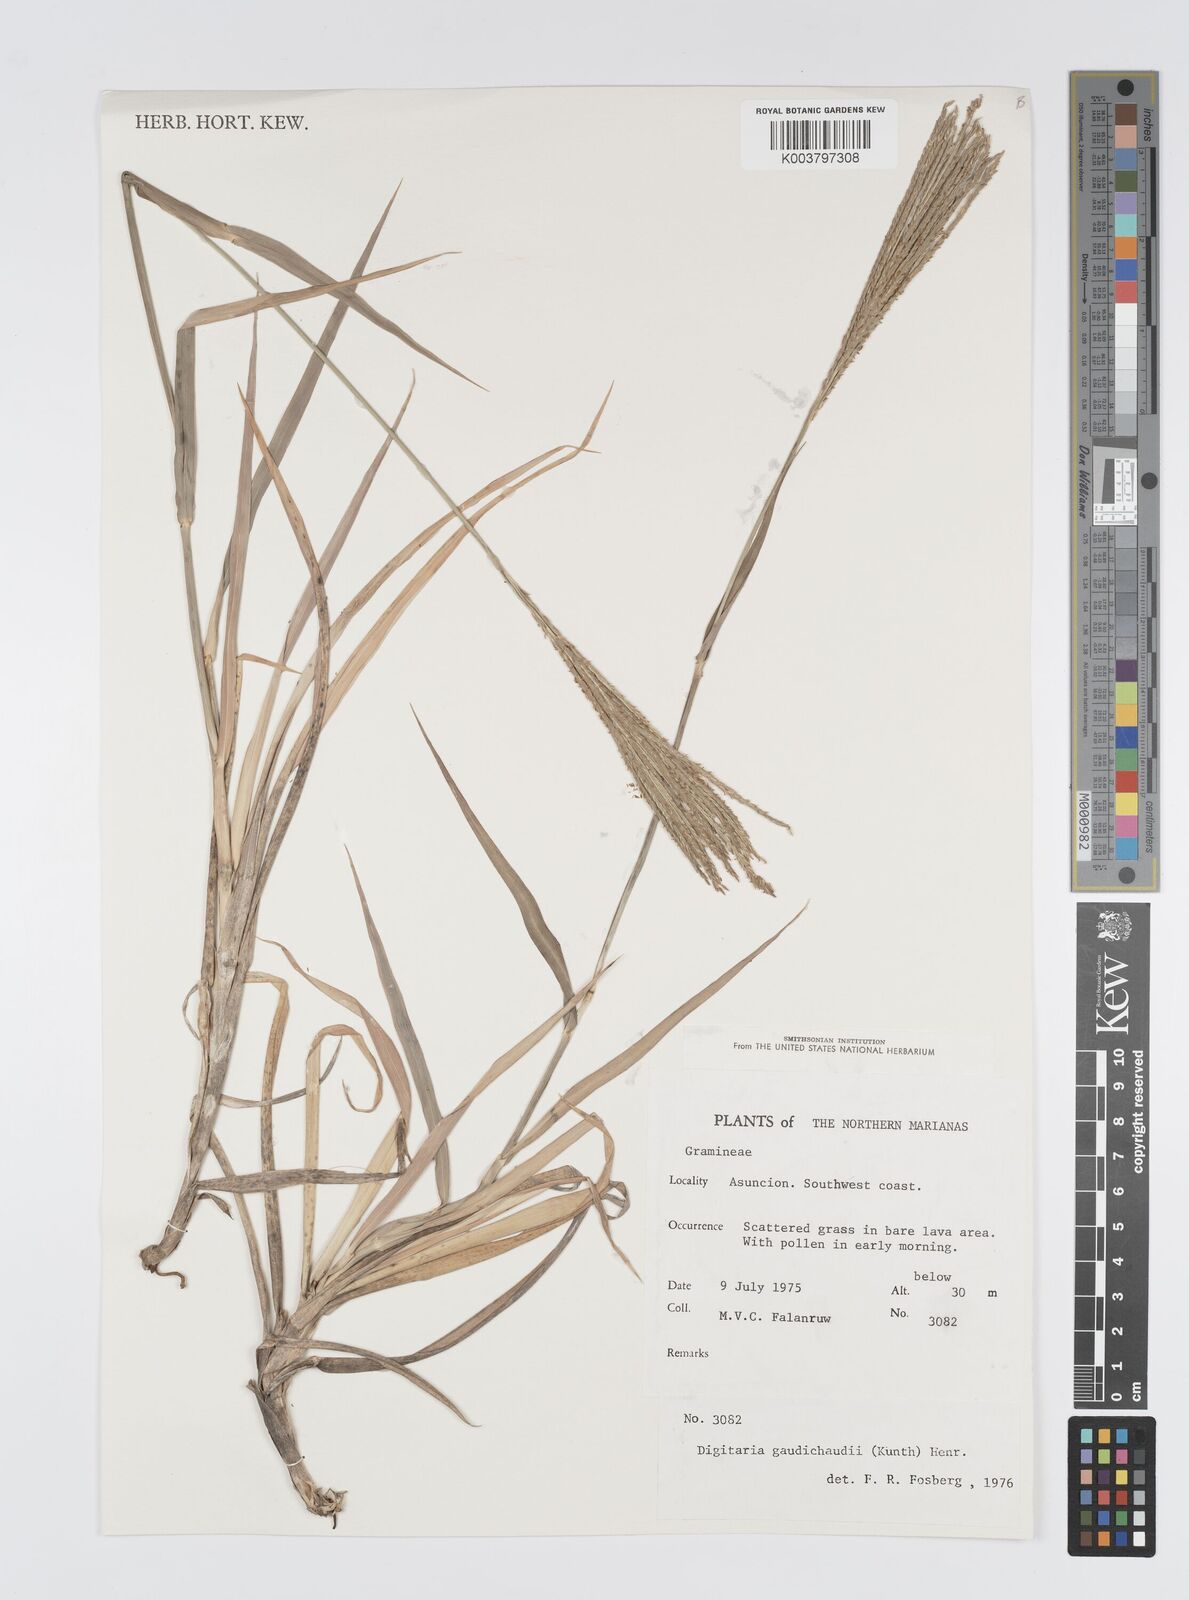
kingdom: Plantae
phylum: Tracheophyta
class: Liliopsida
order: Poales
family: Poaceae
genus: Digitaria
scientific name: Digitaria gaudichaudii
